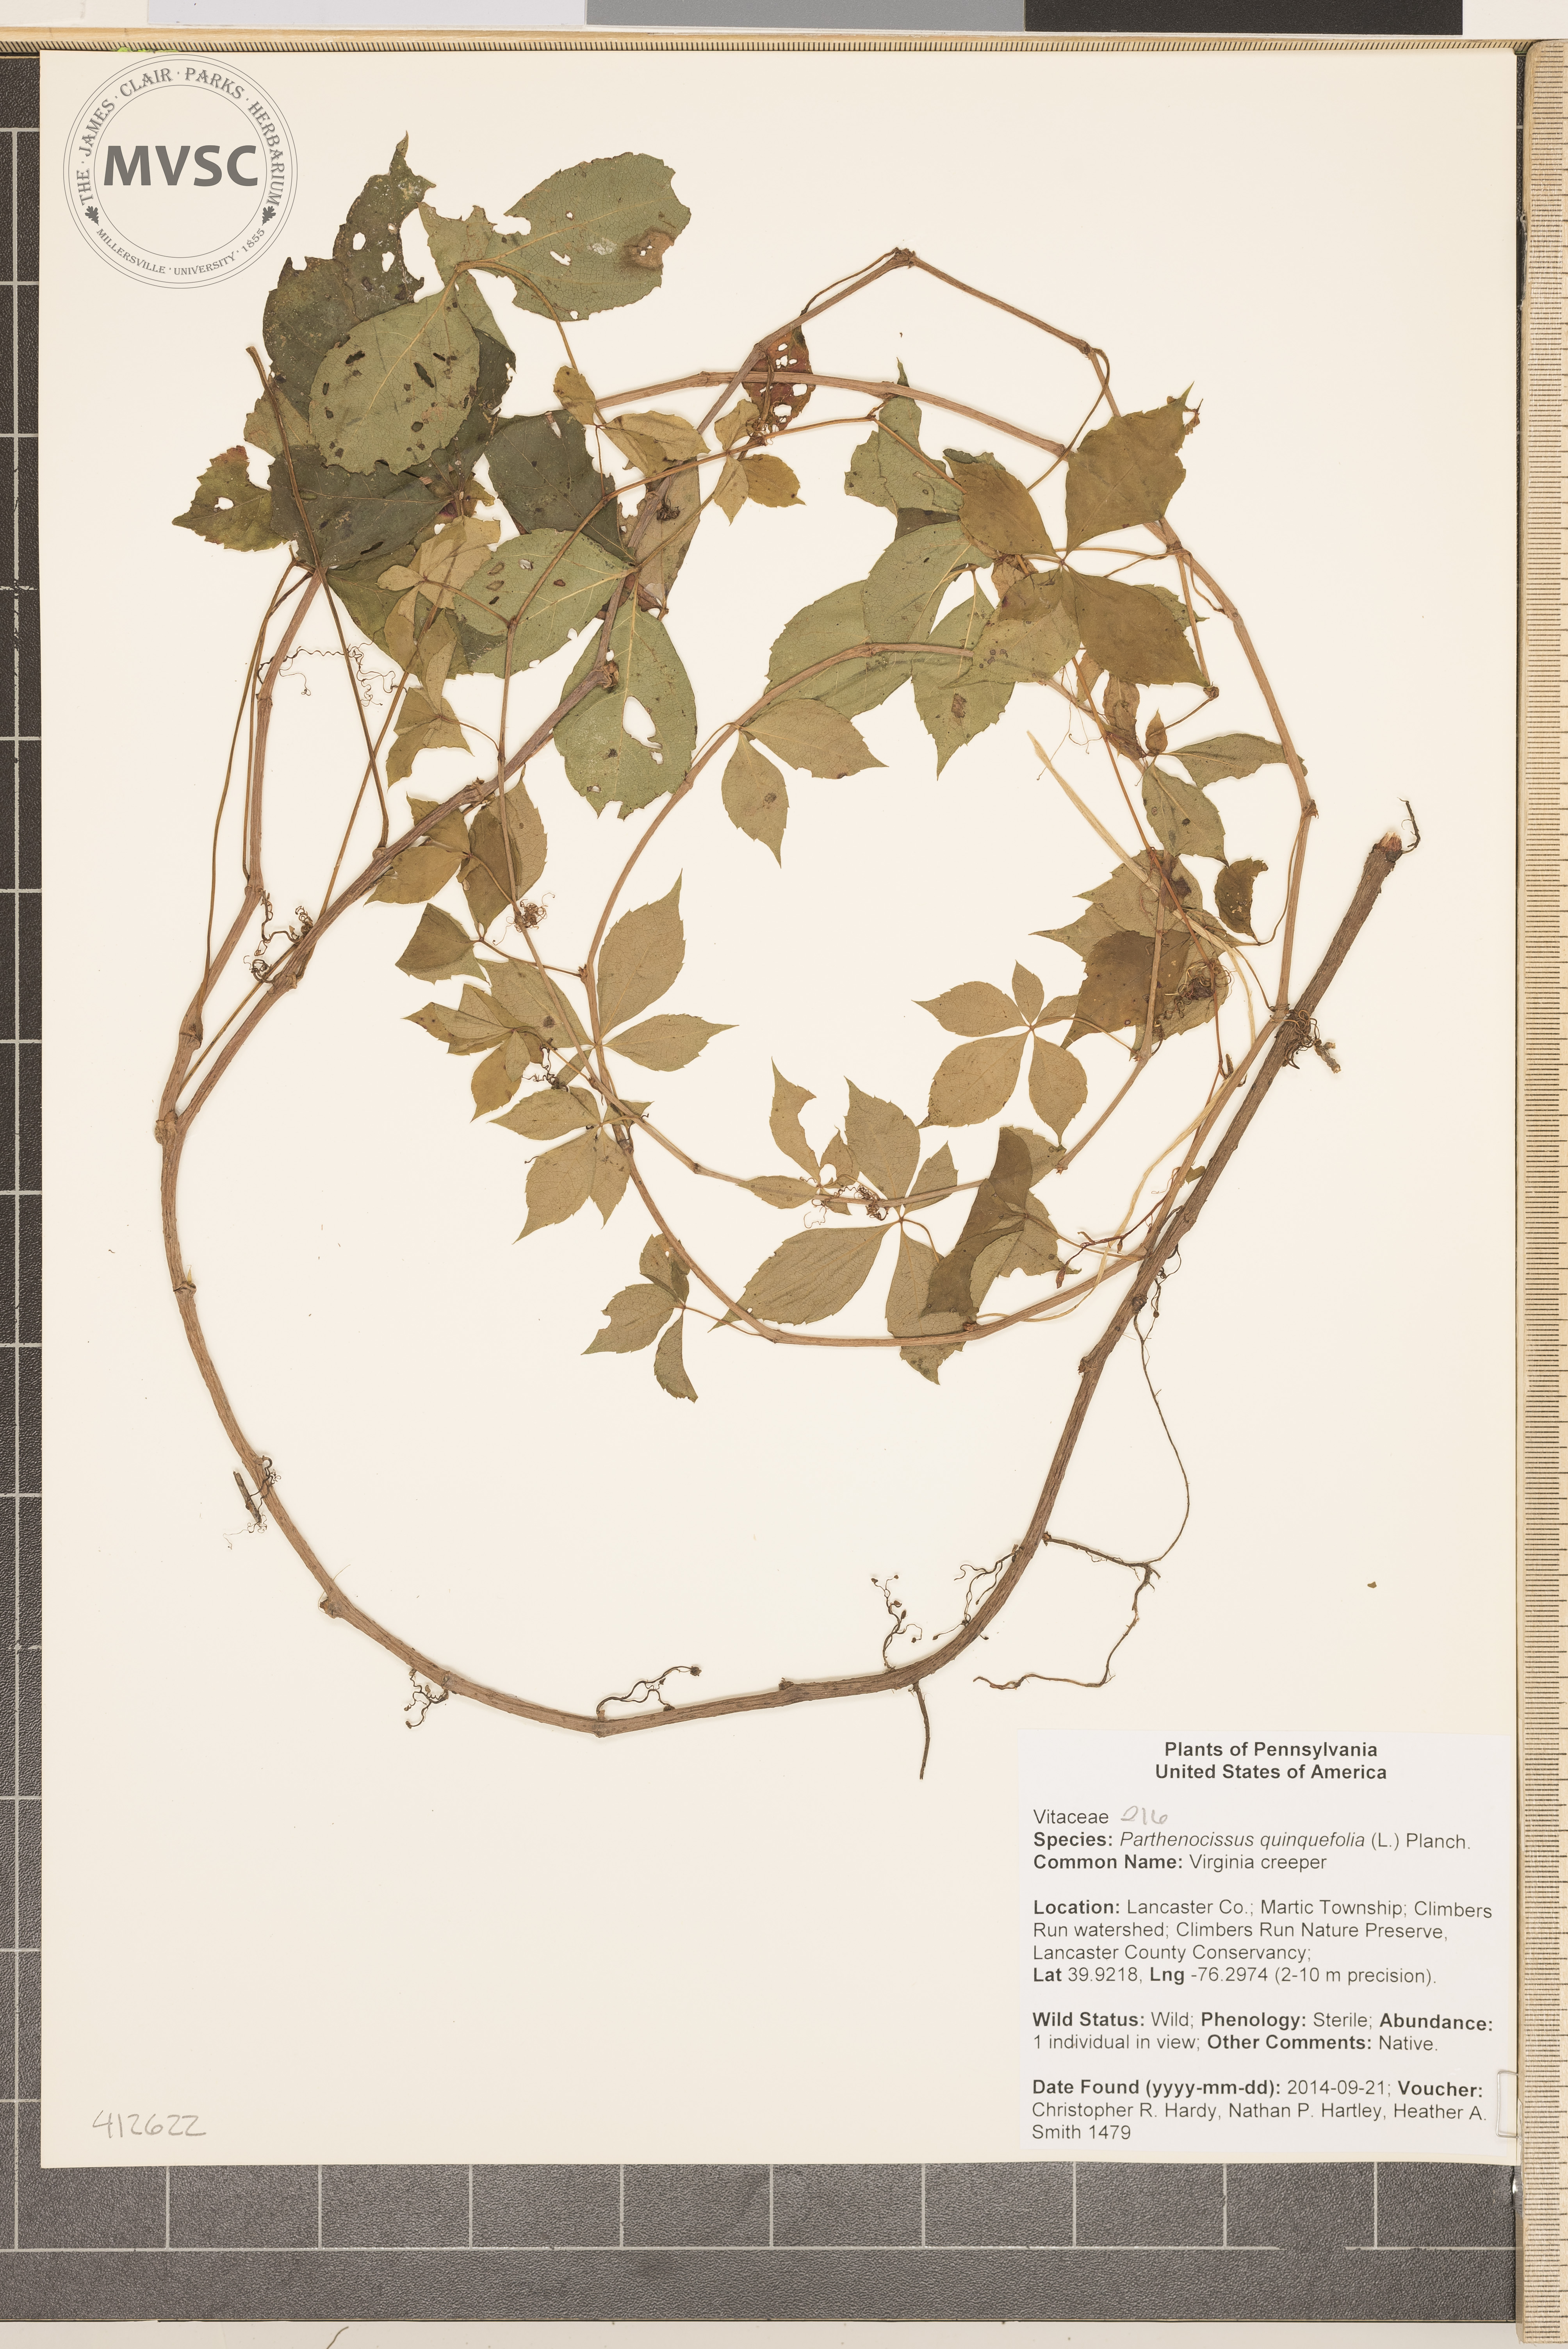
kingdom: Plantae
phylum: Tracheophyta
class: Magnoliopsida
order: Vitales
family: Vitaceae
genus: Parthenocissus
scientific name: Parthenocissus quinquefolia
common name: Virginia creeper
